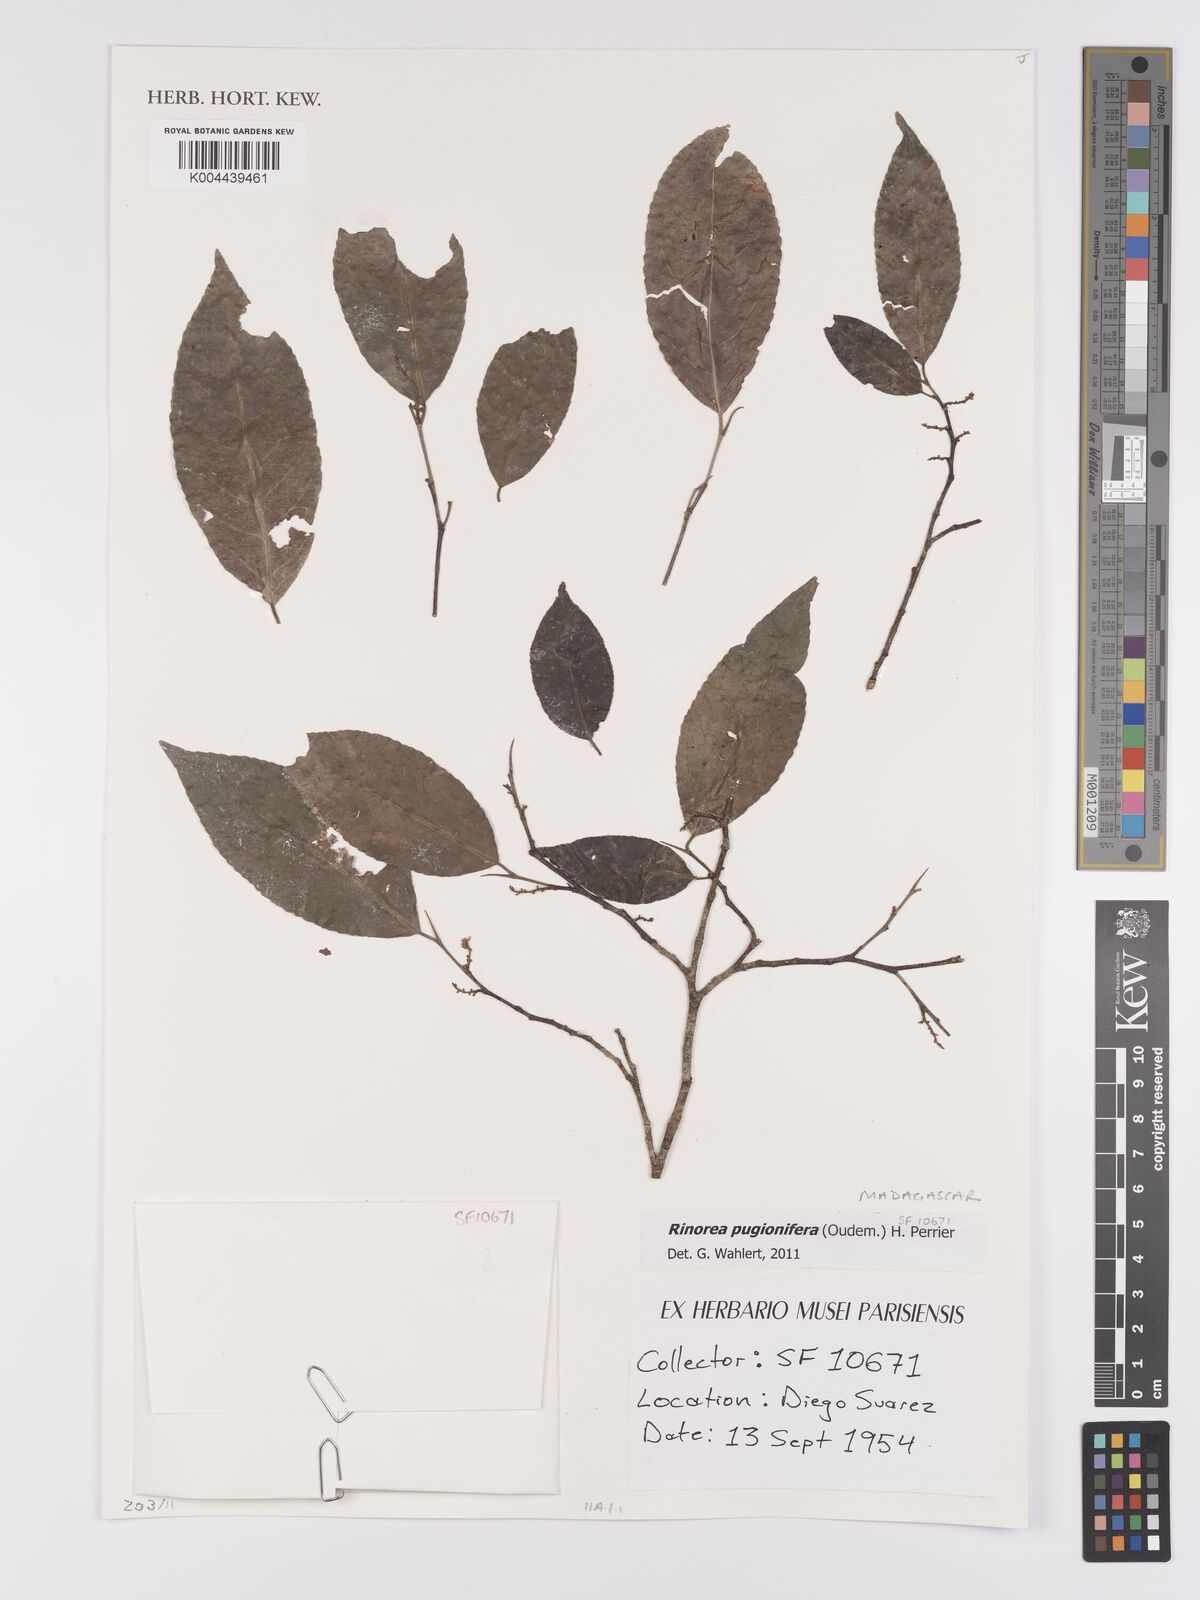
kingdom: Plantae
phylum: Tracheophyta
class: Magnoliopsida
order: Malpighiales
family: Violaceae
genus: Rinorea
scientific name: Rinorea pugionifera
